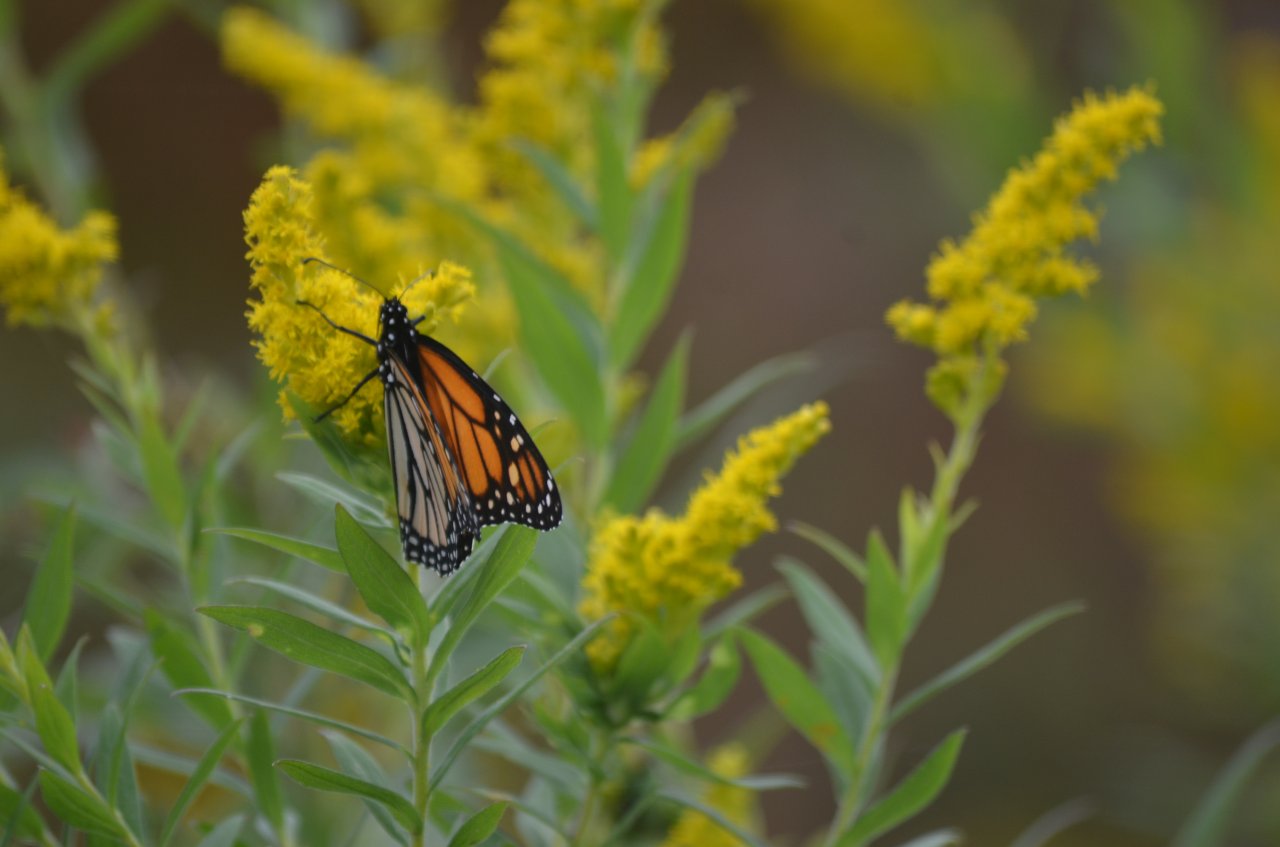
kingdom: Animalia
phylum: Arthropoda
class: Insecta
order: Lepidoptera
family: Nymphalidae
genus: Danaus
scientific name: Danaus plexippus
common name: Monarch
